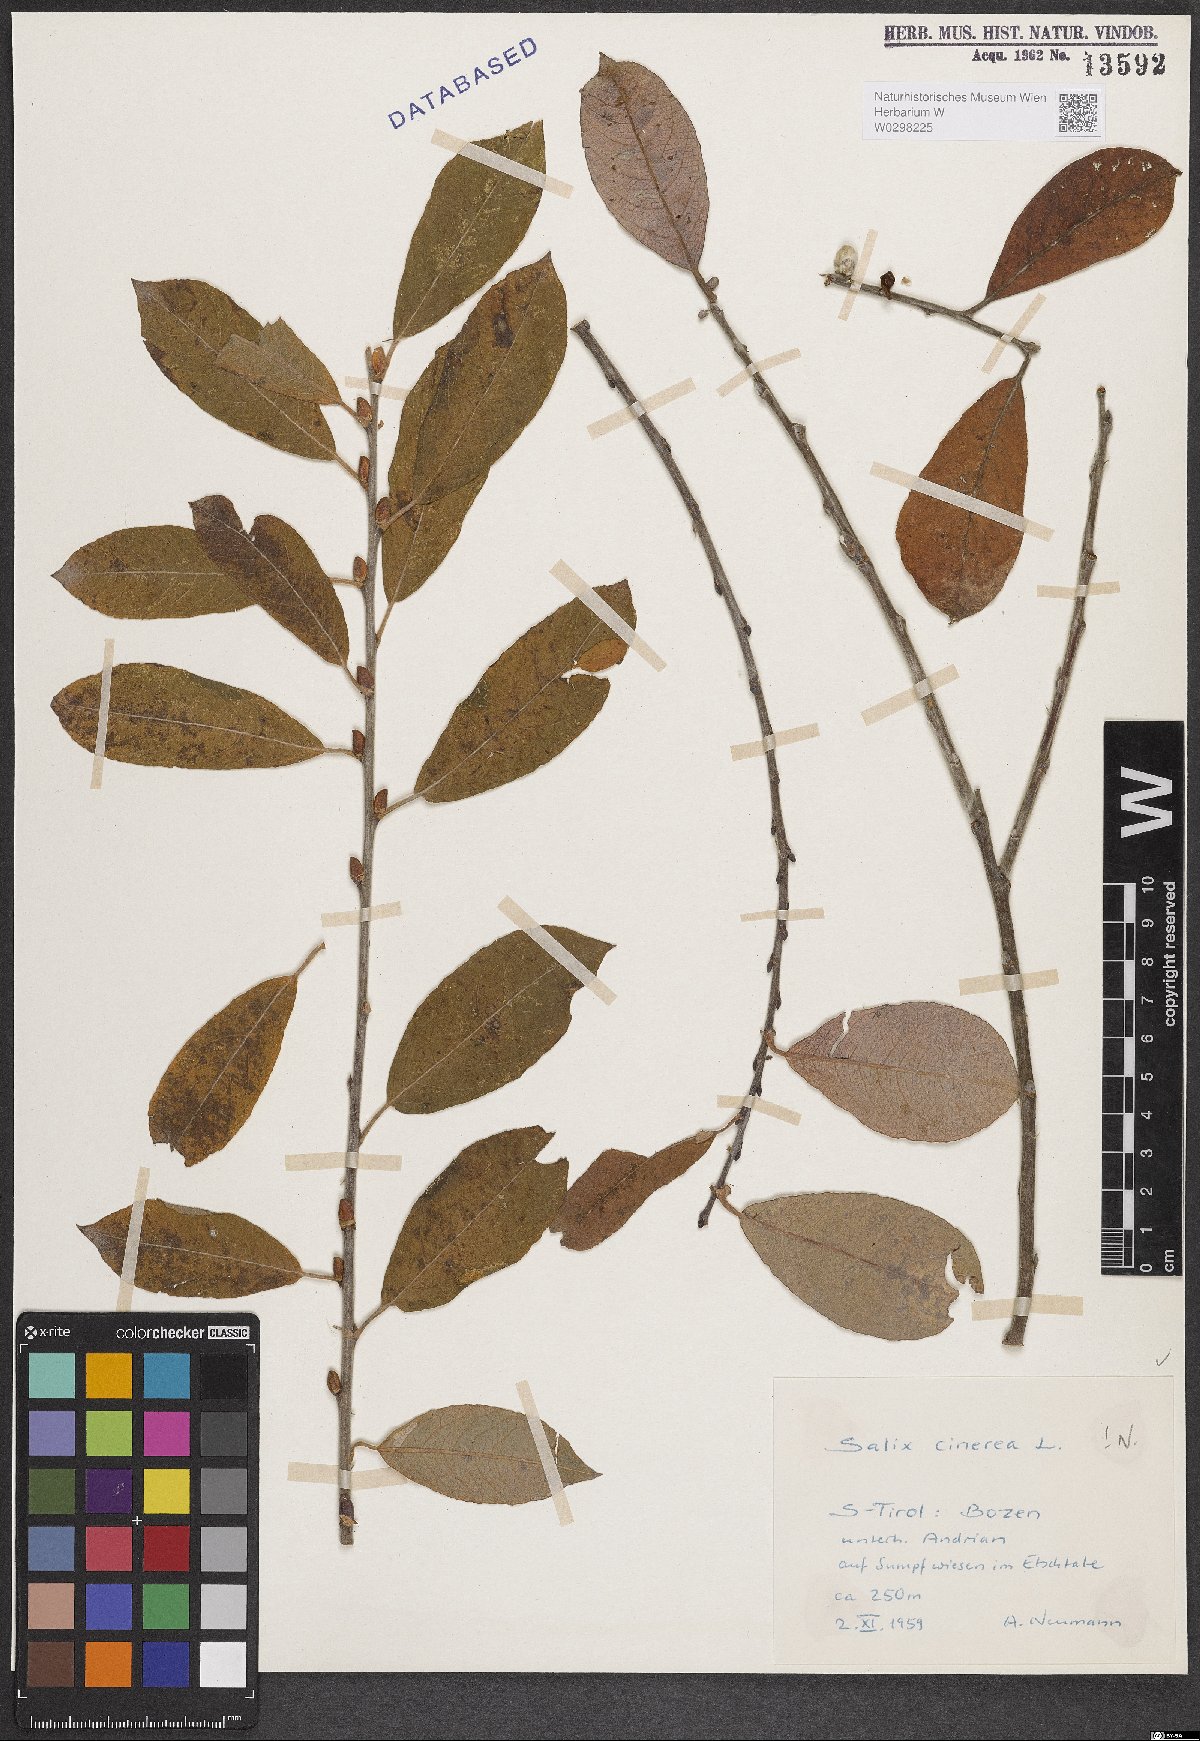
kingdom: Plantae
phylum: Tracheophyta
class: Magnoliopsida
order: Malpighiales
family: Salicaceae
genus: Salix
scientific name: Salix cinerea
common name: Common sallow
